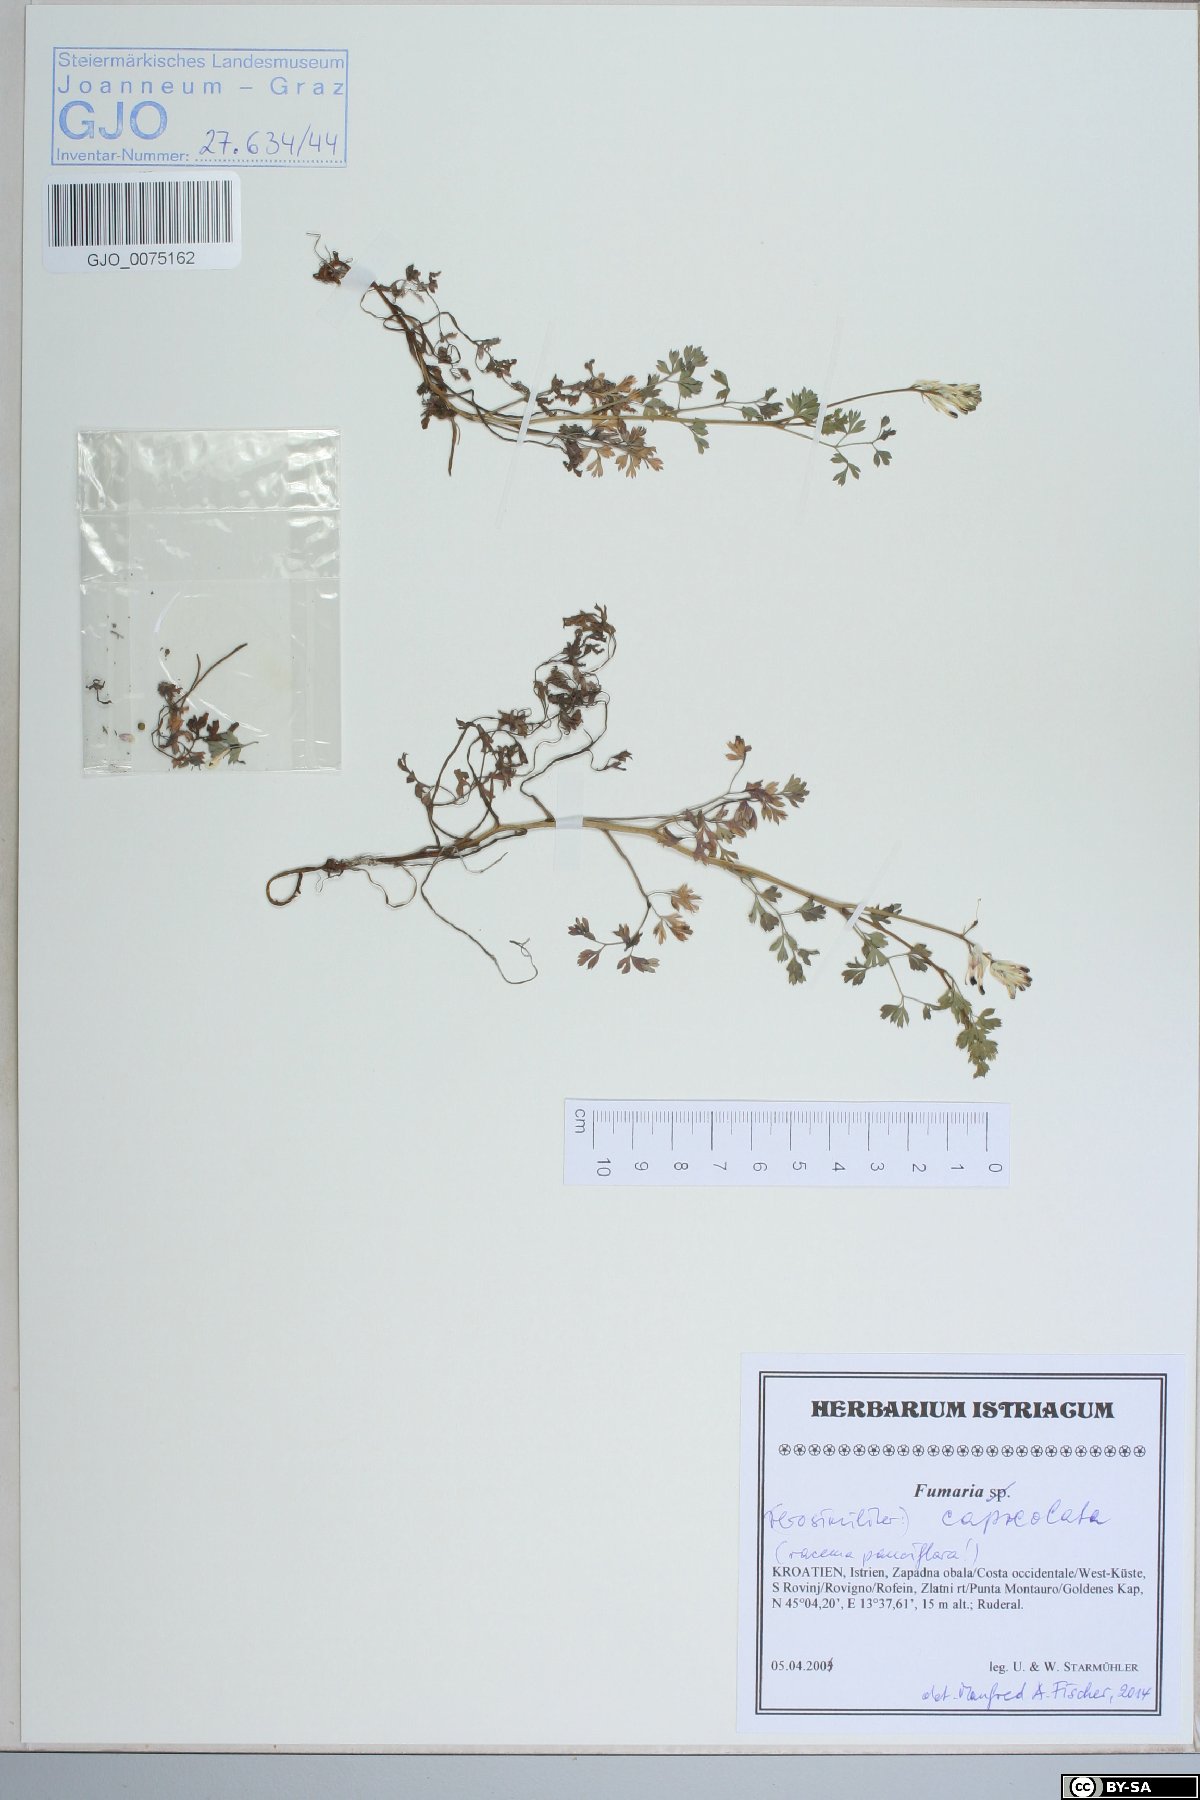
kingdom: Plantae
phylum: Tracheophyta
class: Magnoliopsida
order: Ranunculales
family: Papaveraceae
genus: Fumaria
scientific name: Fumaria capreolata
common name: White ramping-fumitory
